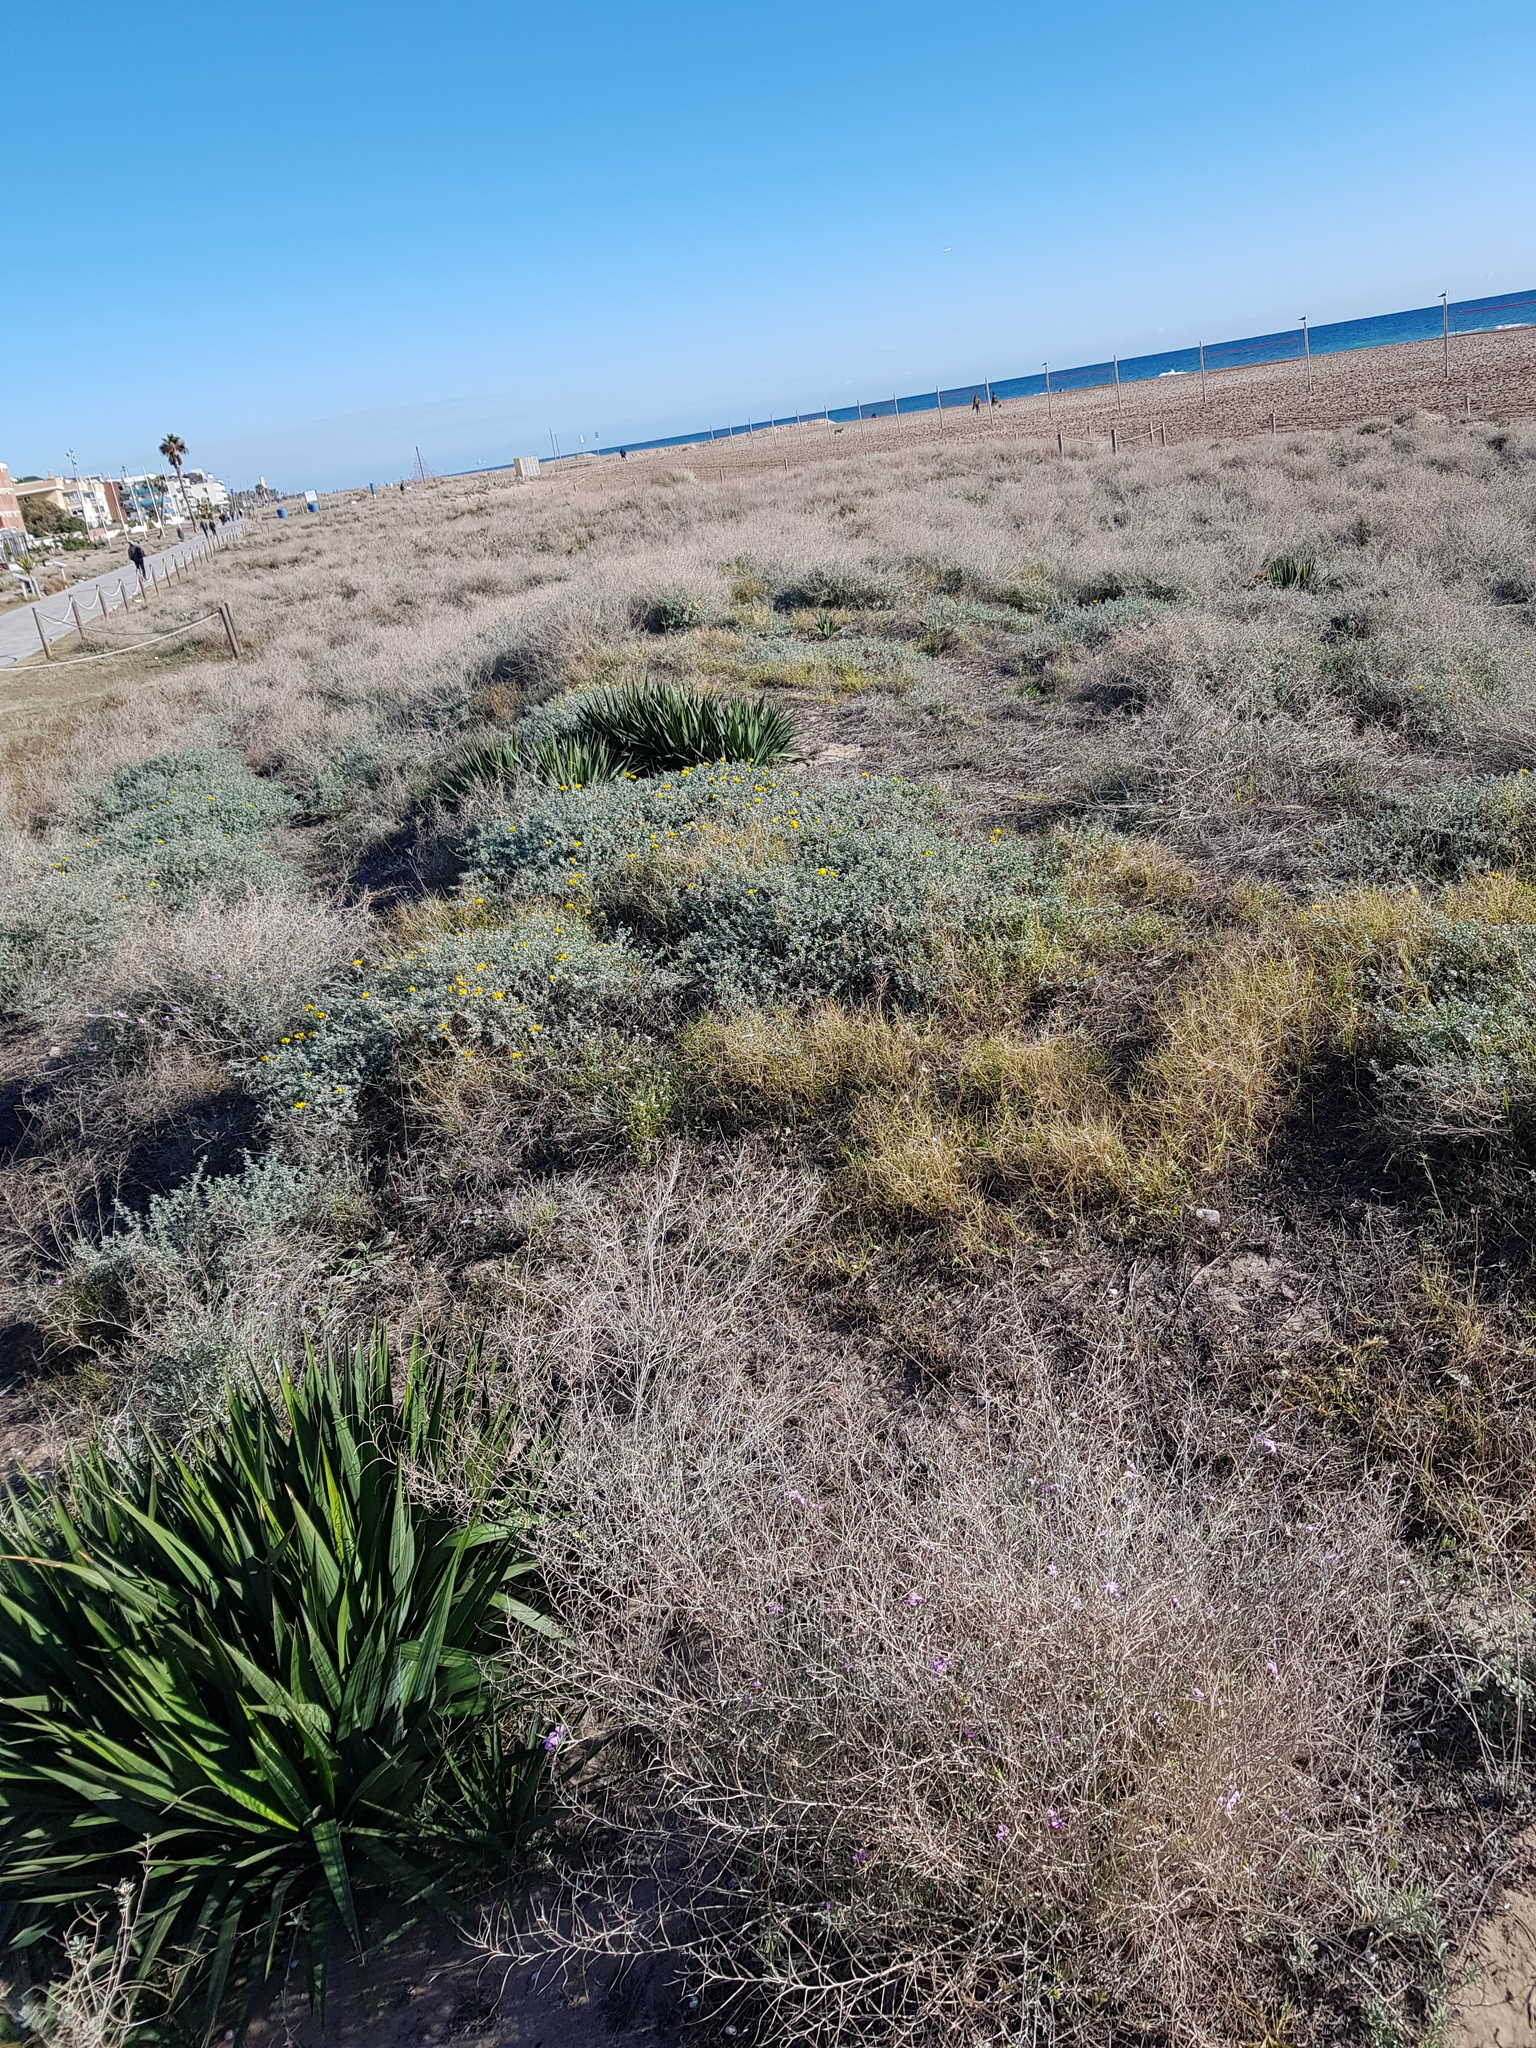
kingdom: Plantae
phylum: Tracheophyta
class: Liliopsida
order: Asparagales
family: Asparagaceae
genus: Yucca
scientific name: Yucca aloifolia
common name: Aloe yucca
